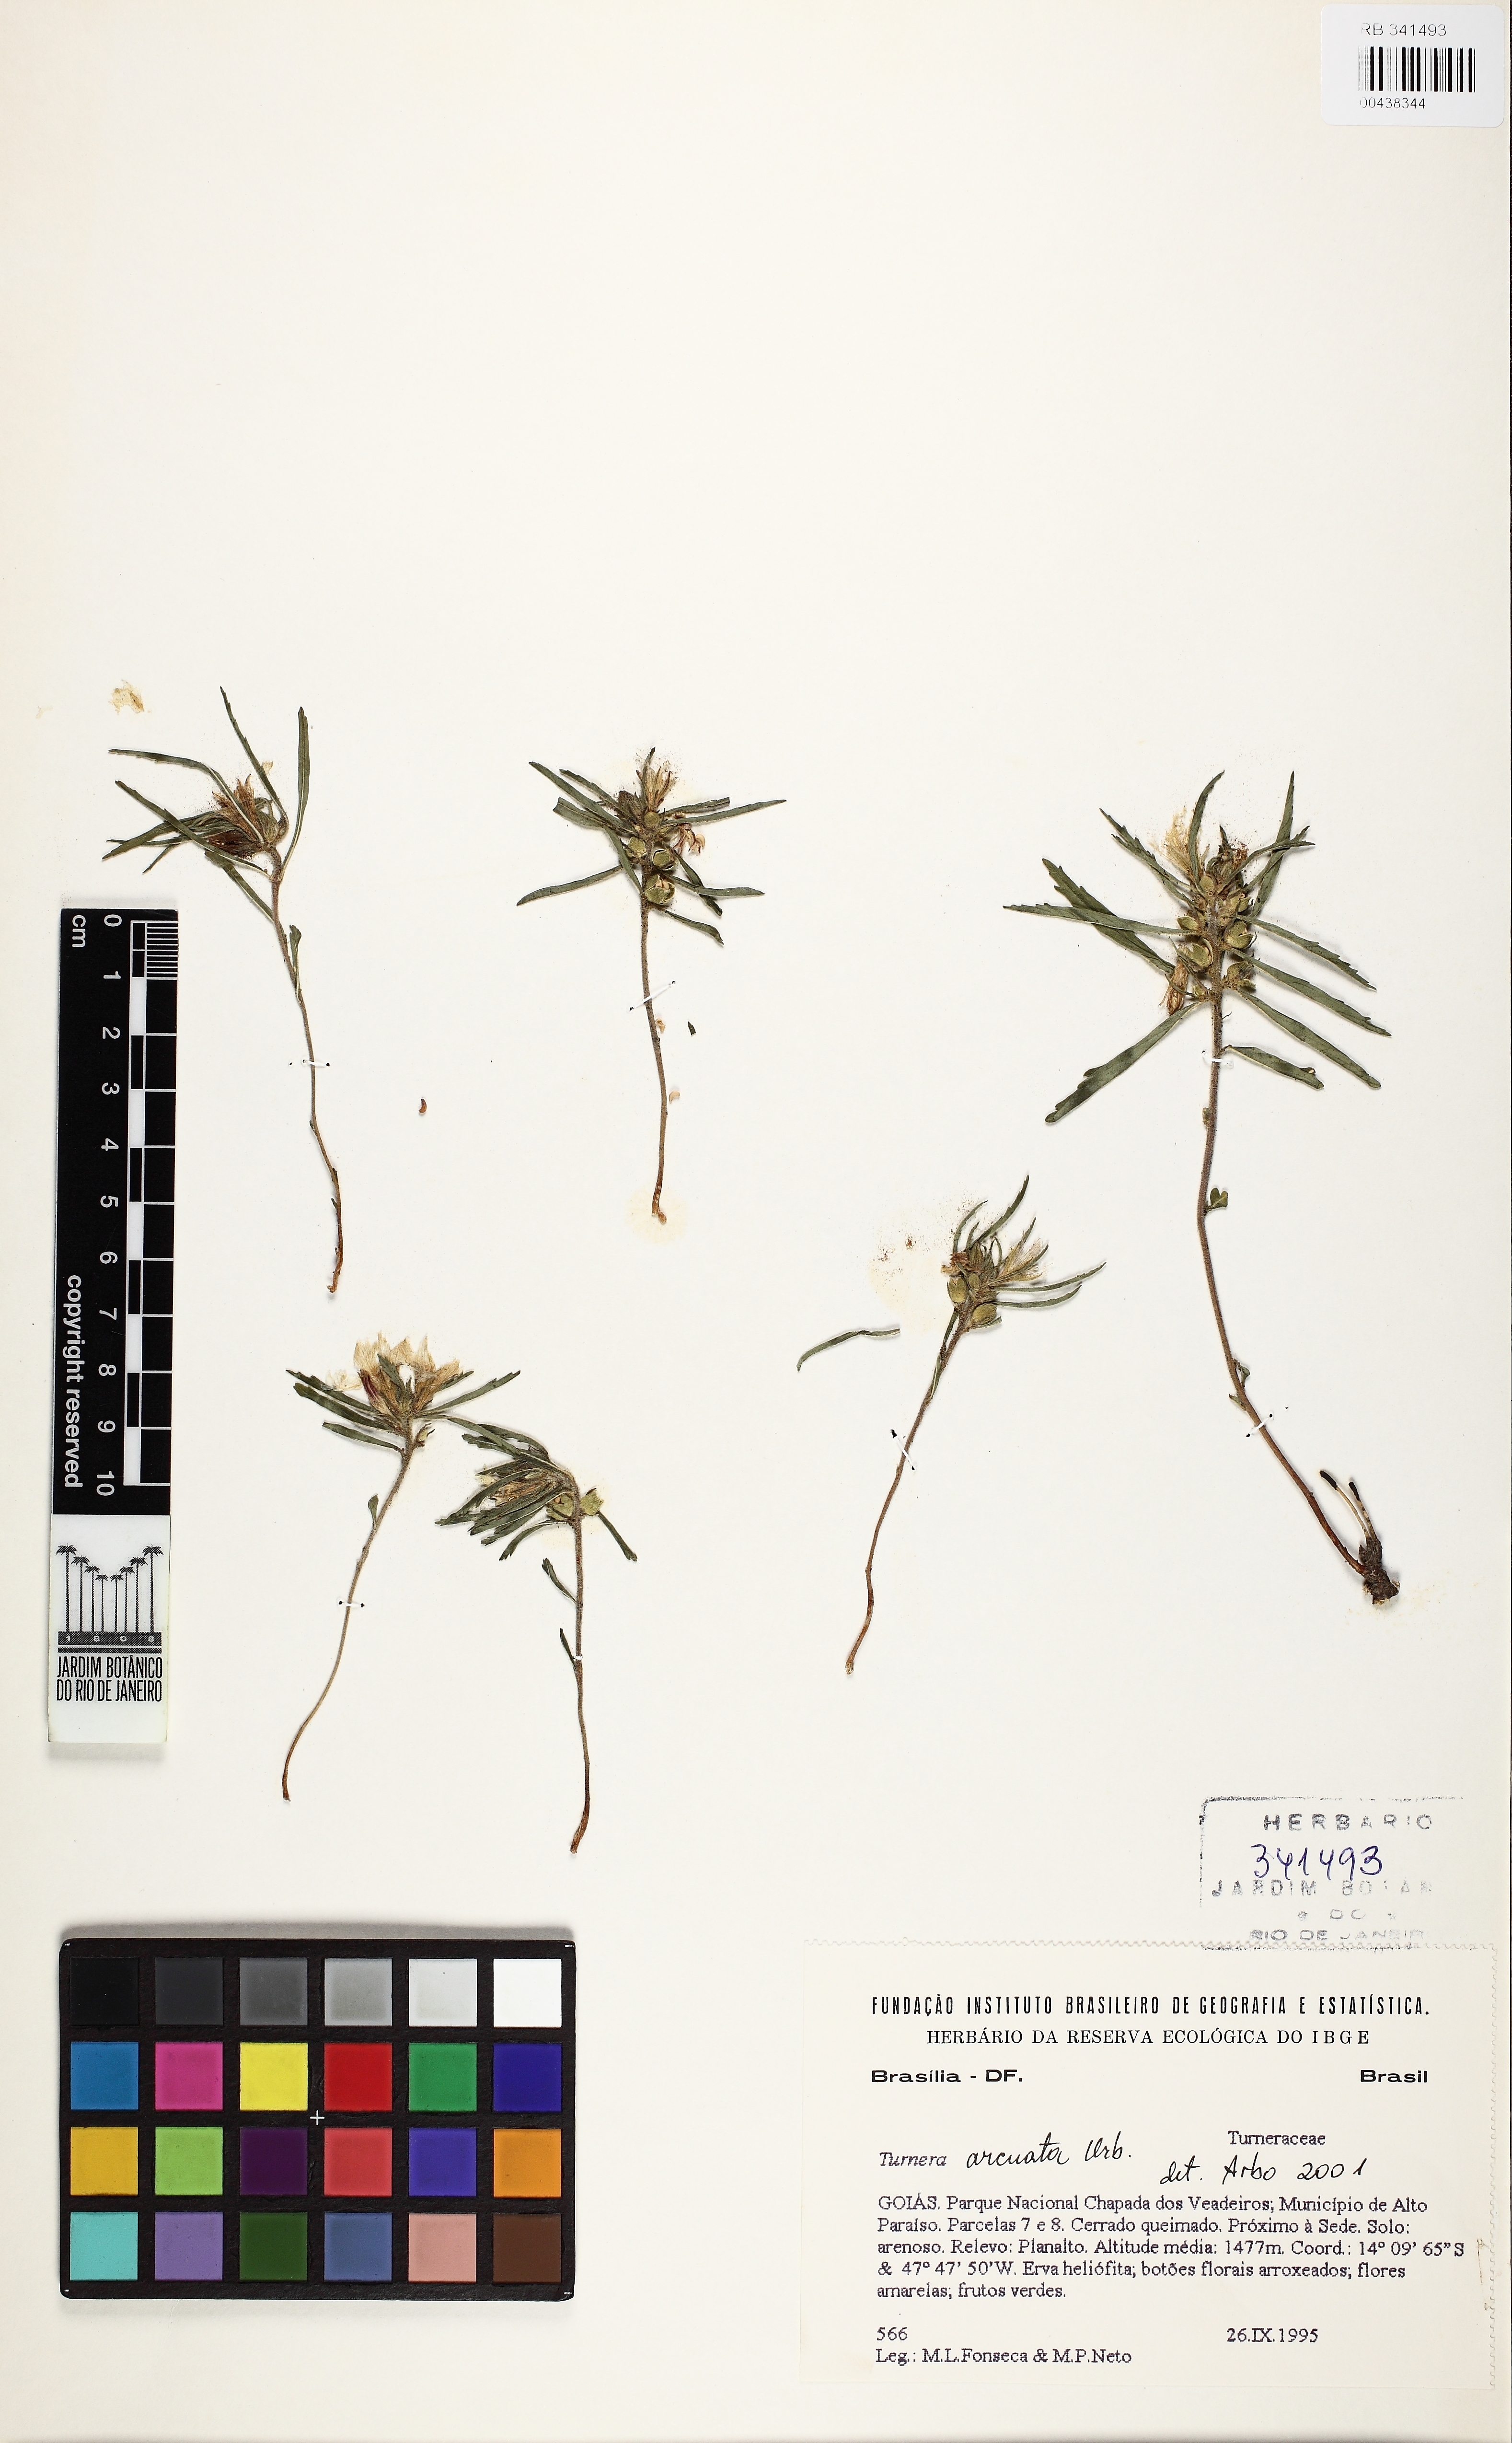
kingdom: Plantae
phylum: Tracheophyta
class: Magnoliopsida
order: Malpighiales
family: Turneraceae
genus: Turnera
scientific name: Turnera arcuata
